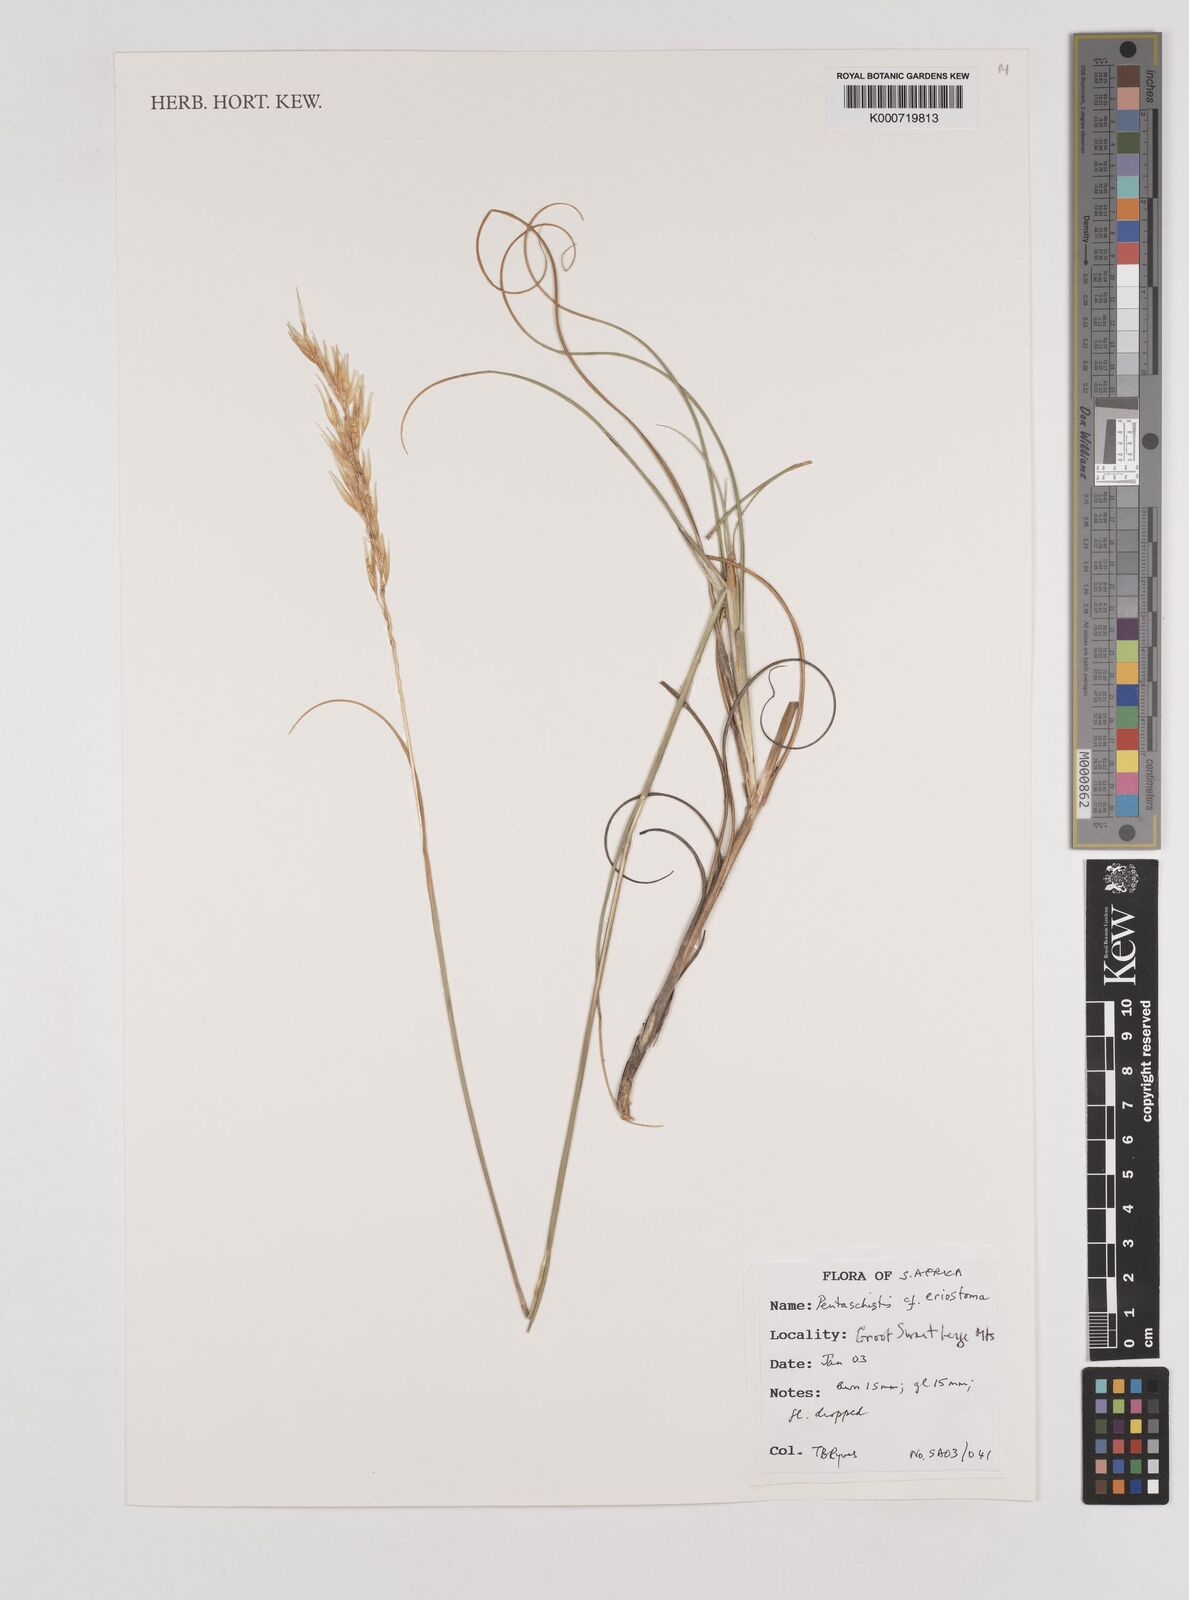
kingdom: Plantae
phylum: Tracheophyta
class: Liliopsida
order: Poales
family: Poaceae
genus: Pentameris
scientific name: Pentameris eriostoma
